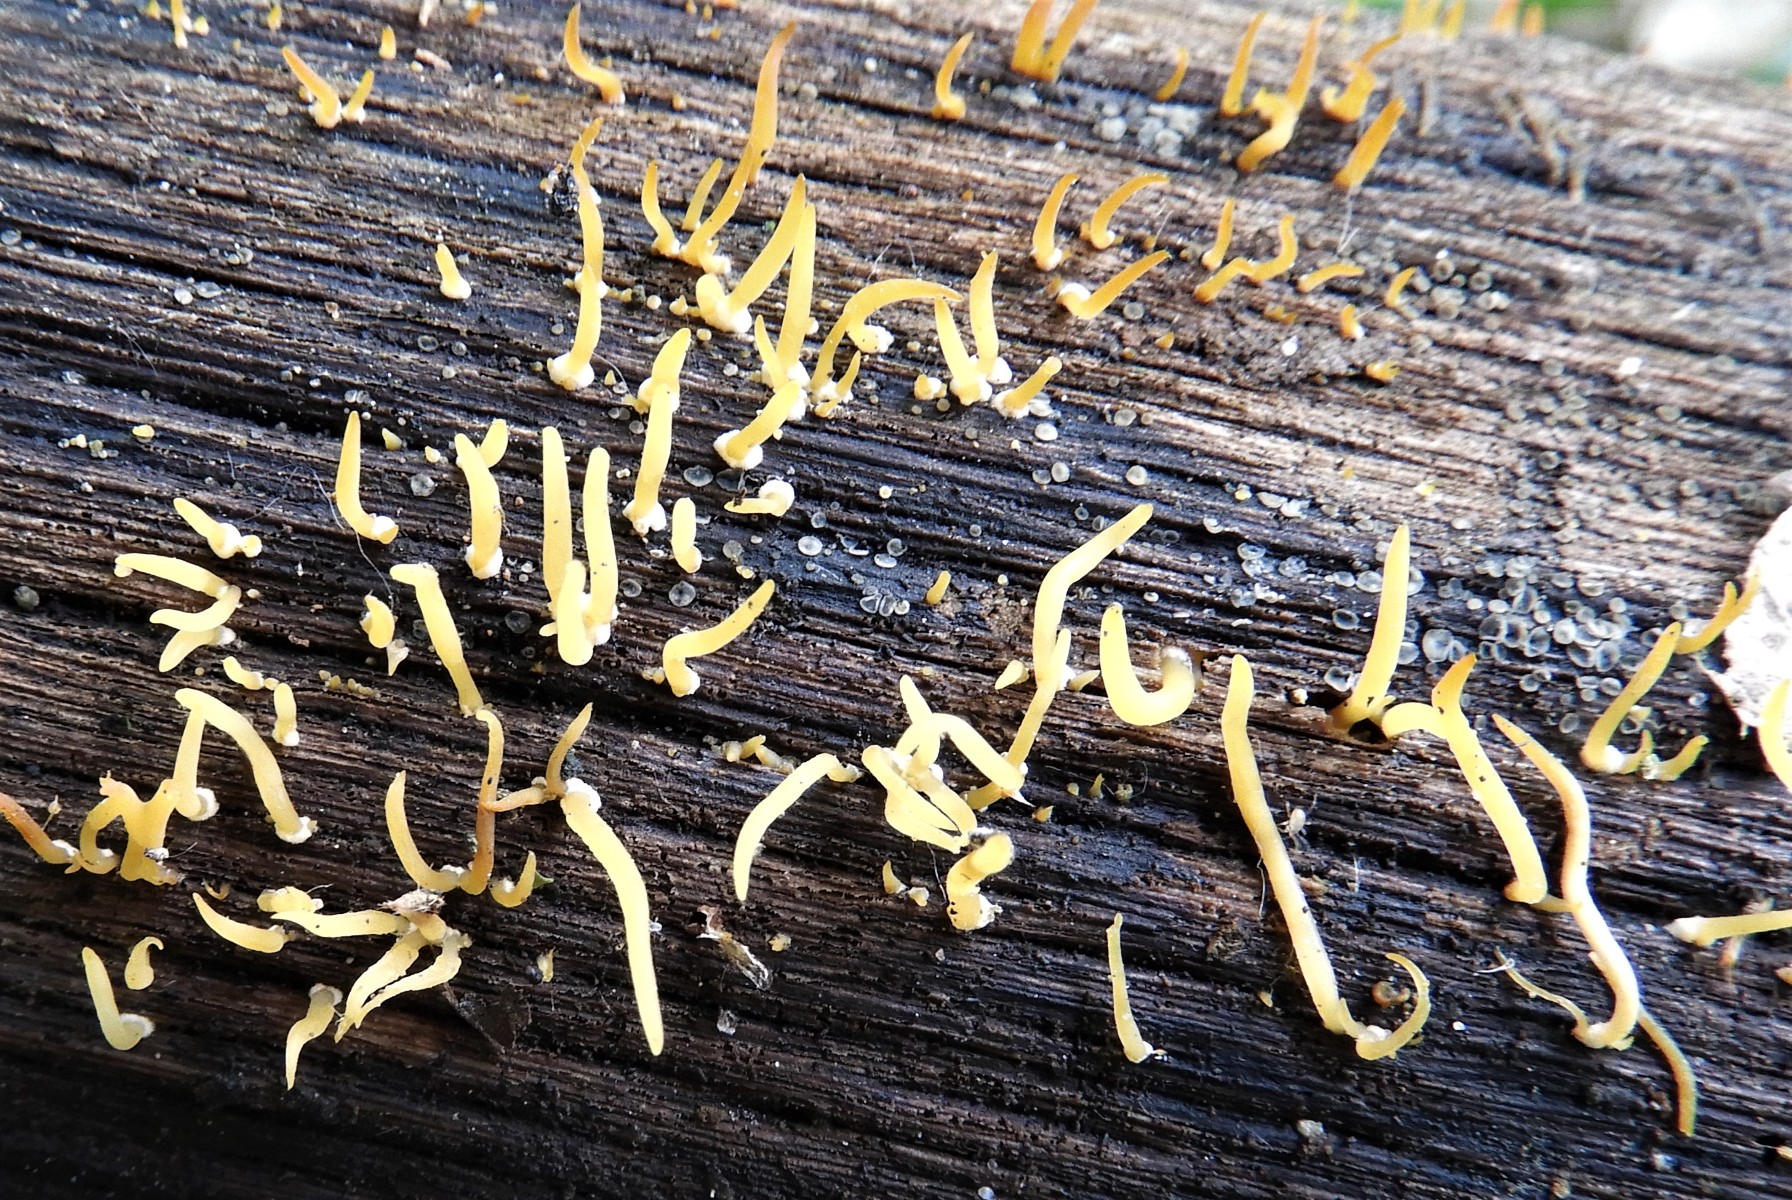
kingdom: Fungi
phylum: Basidiomycota
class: Dacrymycetes
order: Dacrymycetales
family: Dacrymycetaceae
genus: Calocera
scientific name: Calocera cornea
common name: liden guldgaffel
